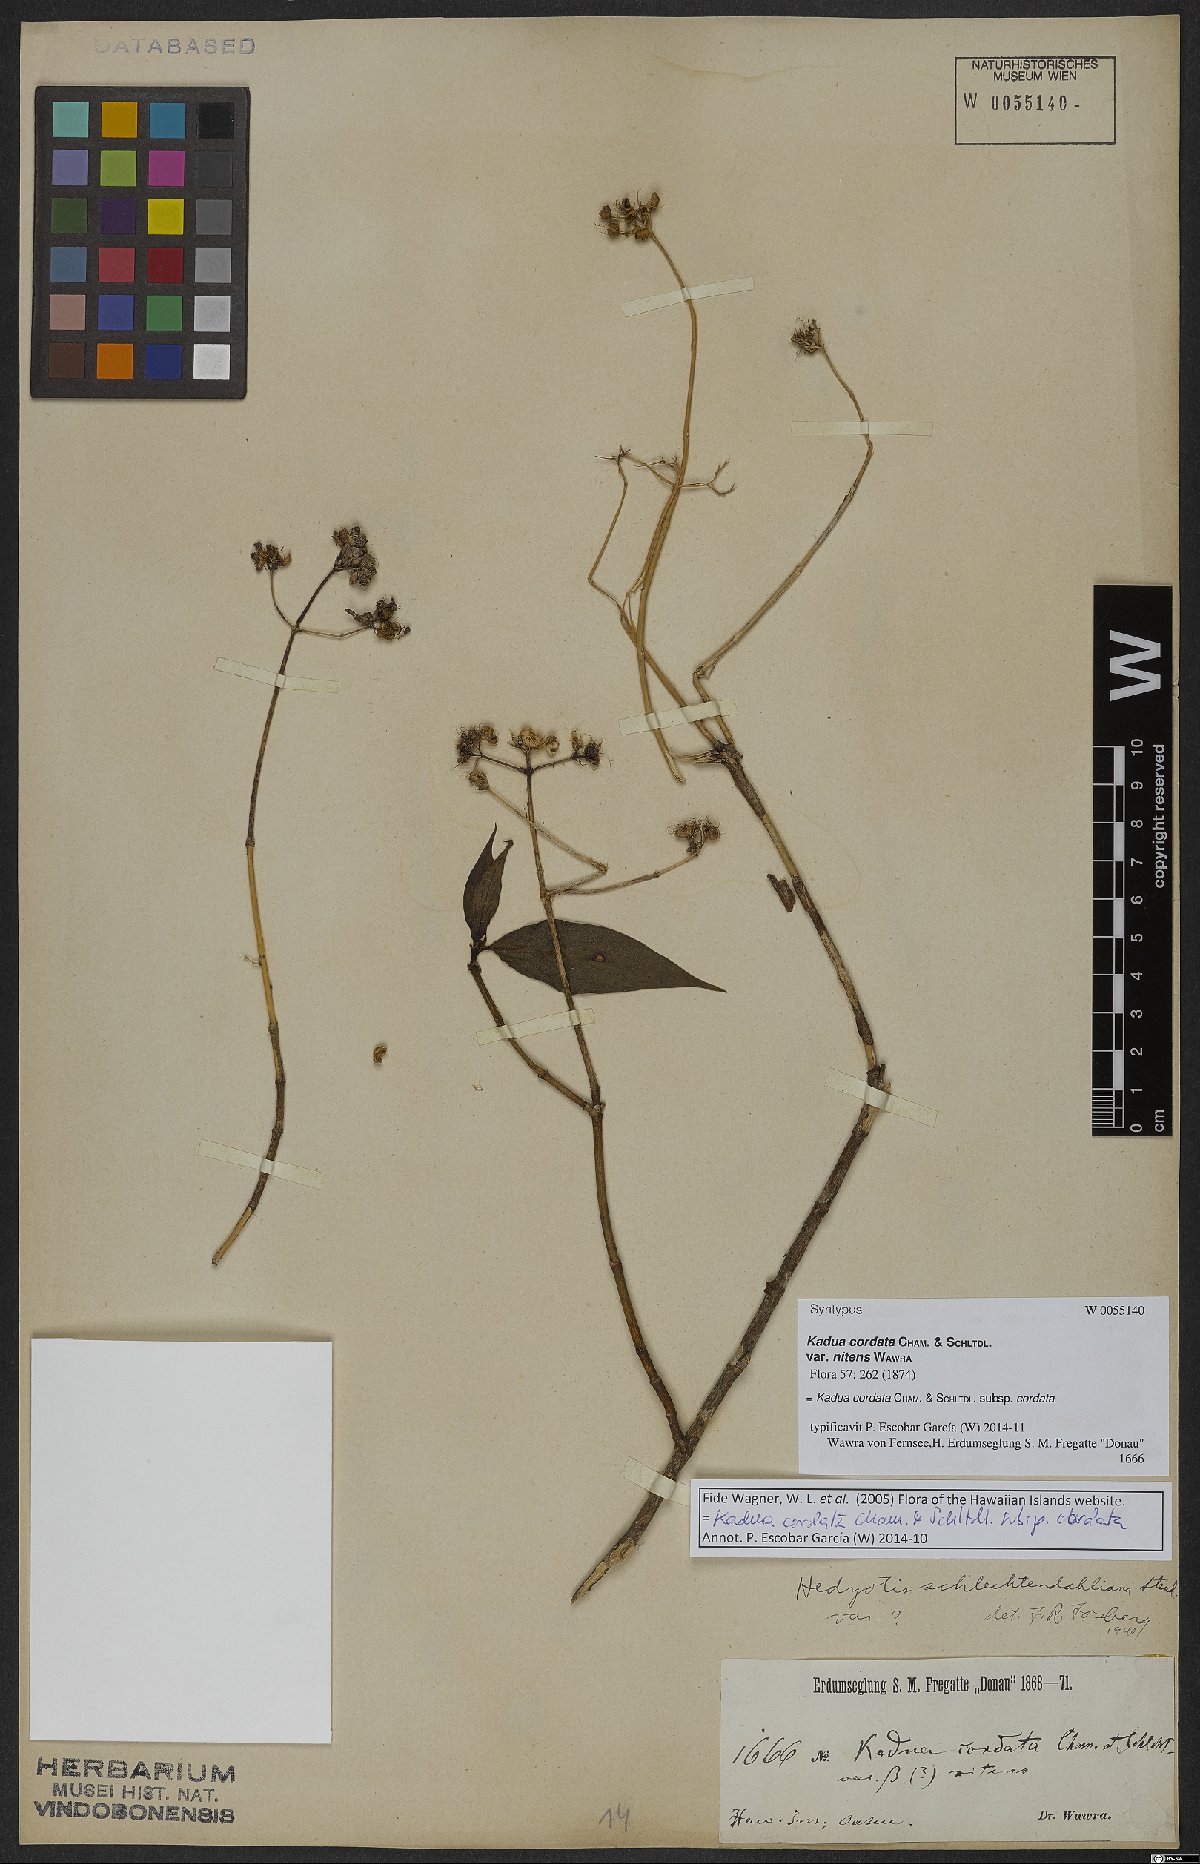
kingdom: Plantae
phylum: Tracheophyta
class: Magnoliopsida
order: Gentianales
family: Rubiaceae
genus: Kadua
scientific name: Kadua cordata
